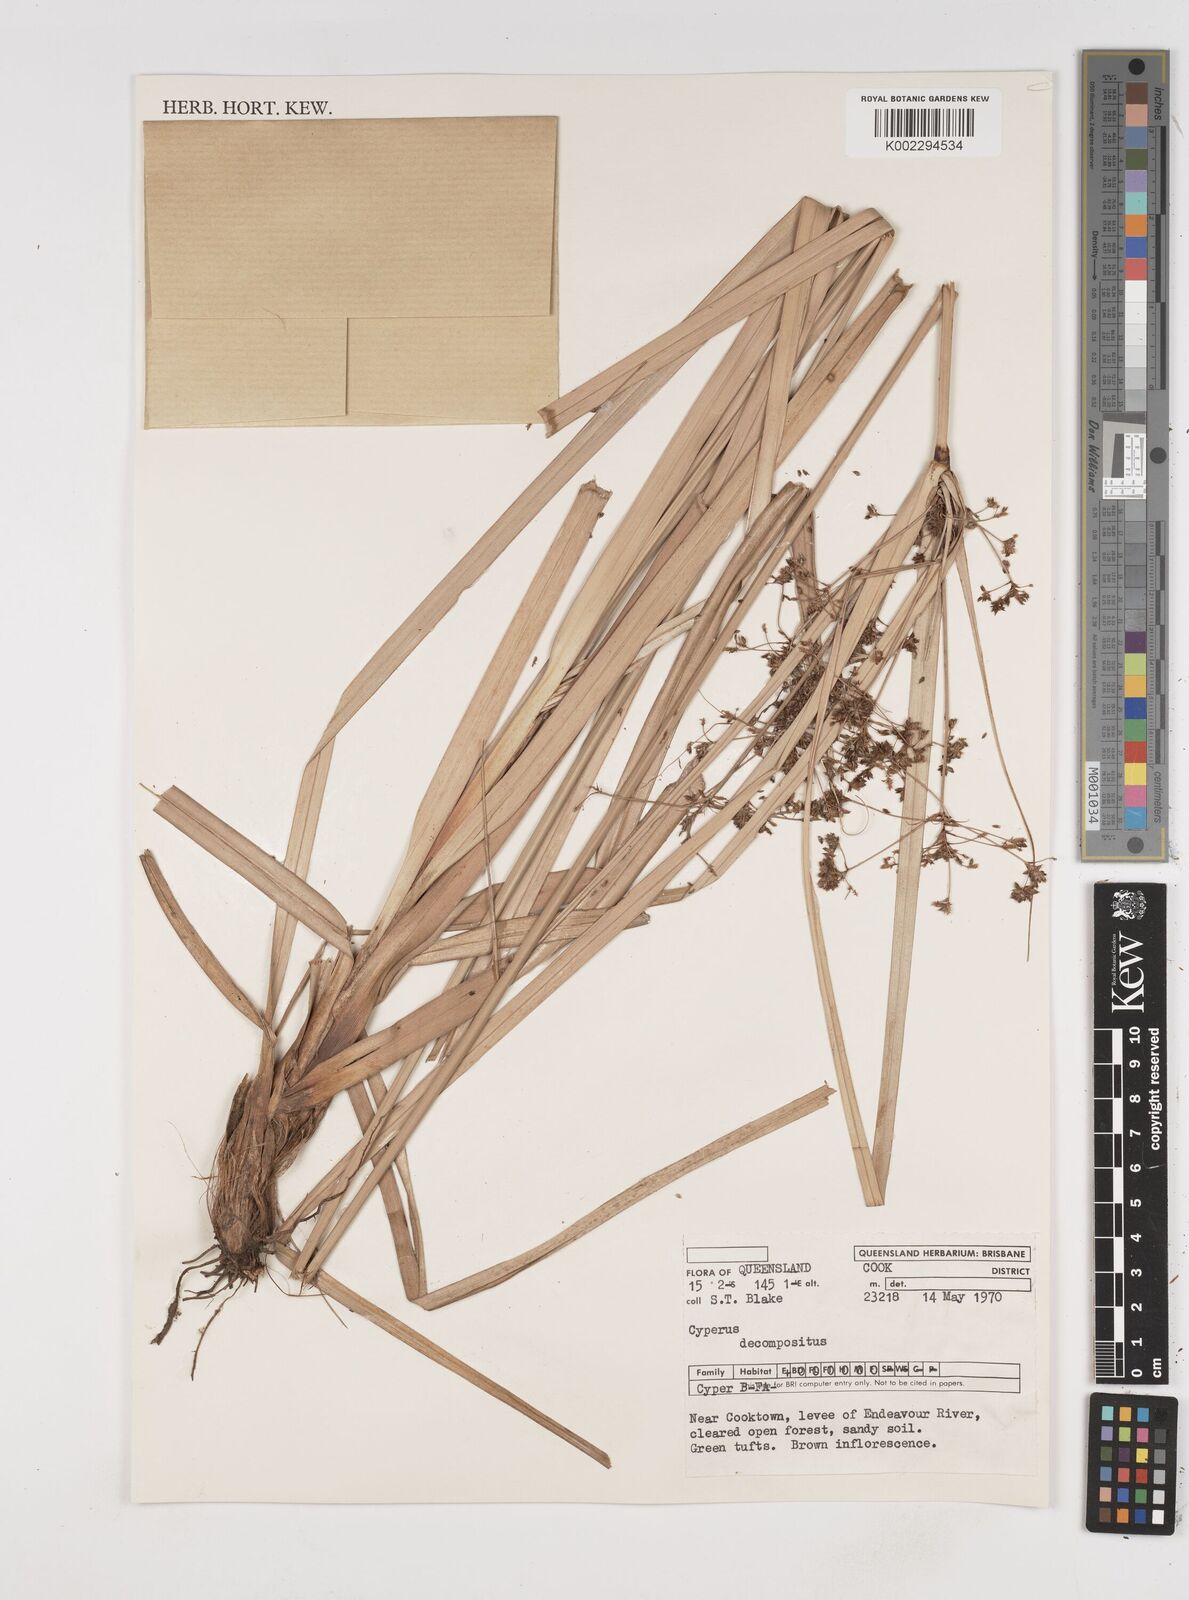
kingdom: Plantae
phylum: Tracheophyta
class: Liliopsida
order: Poales
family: Cyperaceae
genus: Cyperus
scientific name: Cyperus decompositus
